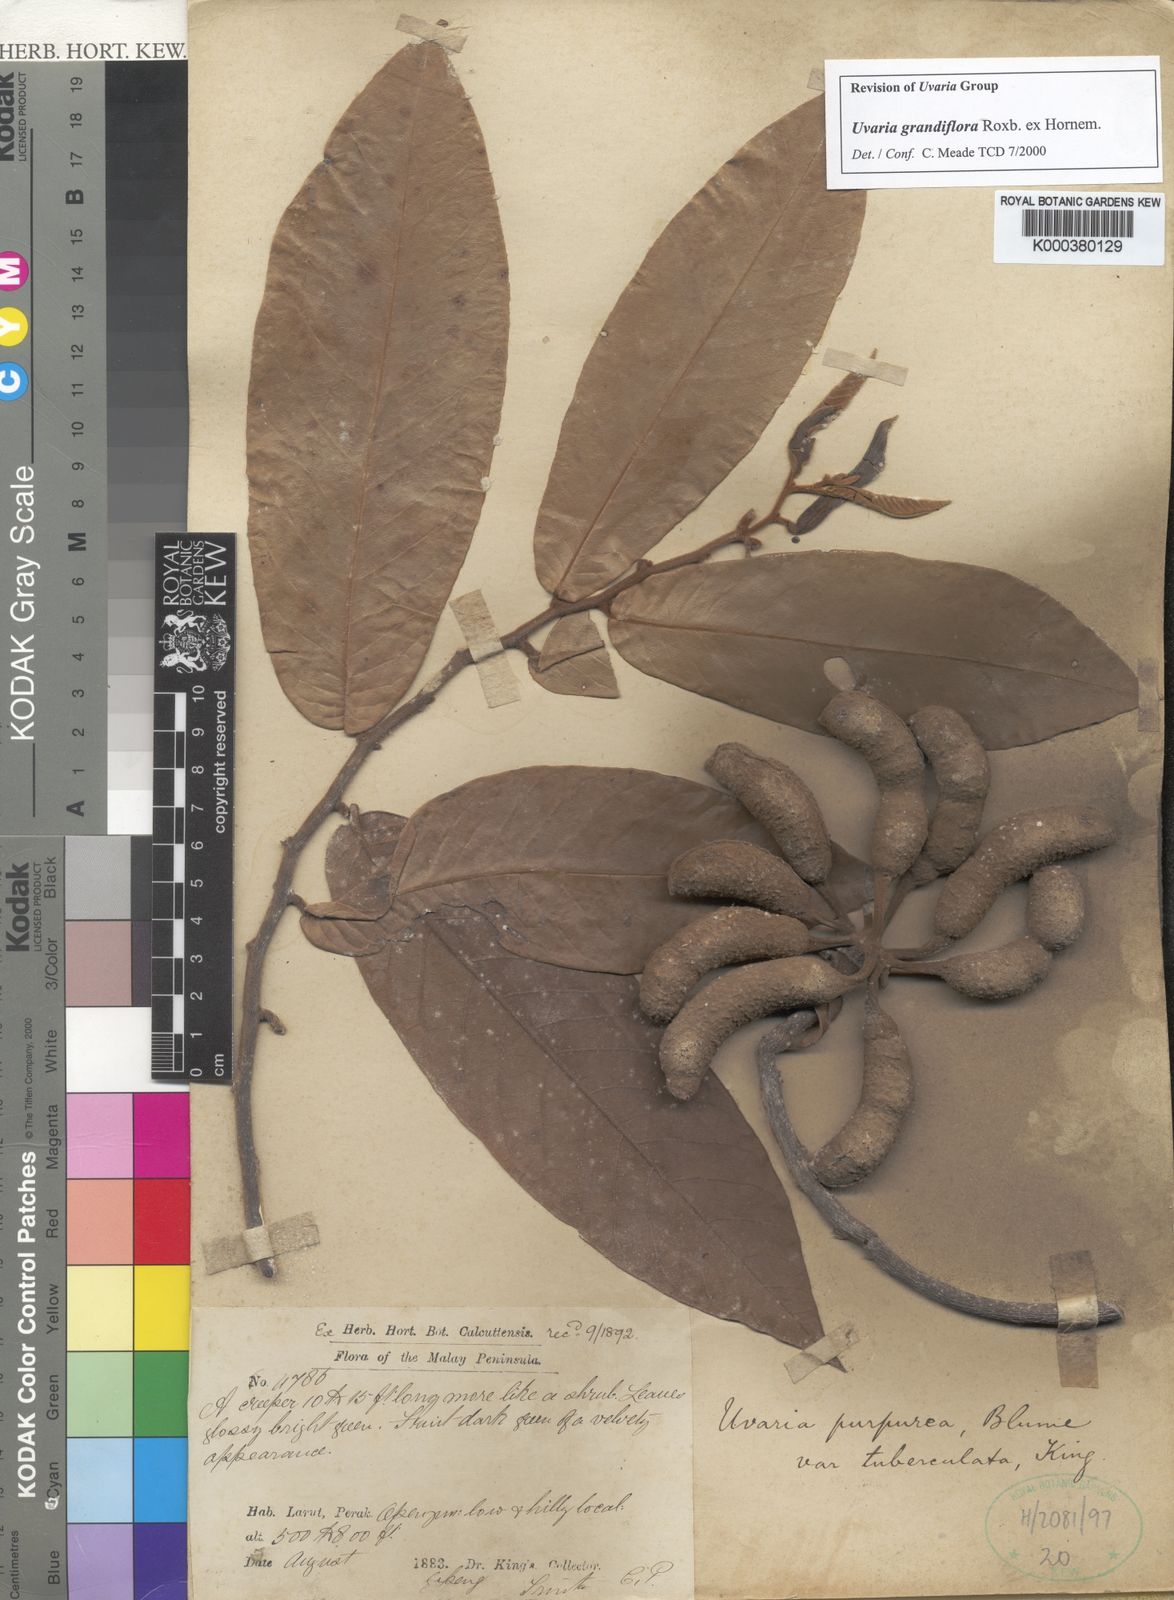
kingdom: Plantae
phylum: Tracheophyta
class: Magnoliopsida
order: Magnoliales
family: Annonaceae
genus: Uvaria
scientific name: Uvaria grandiflora
